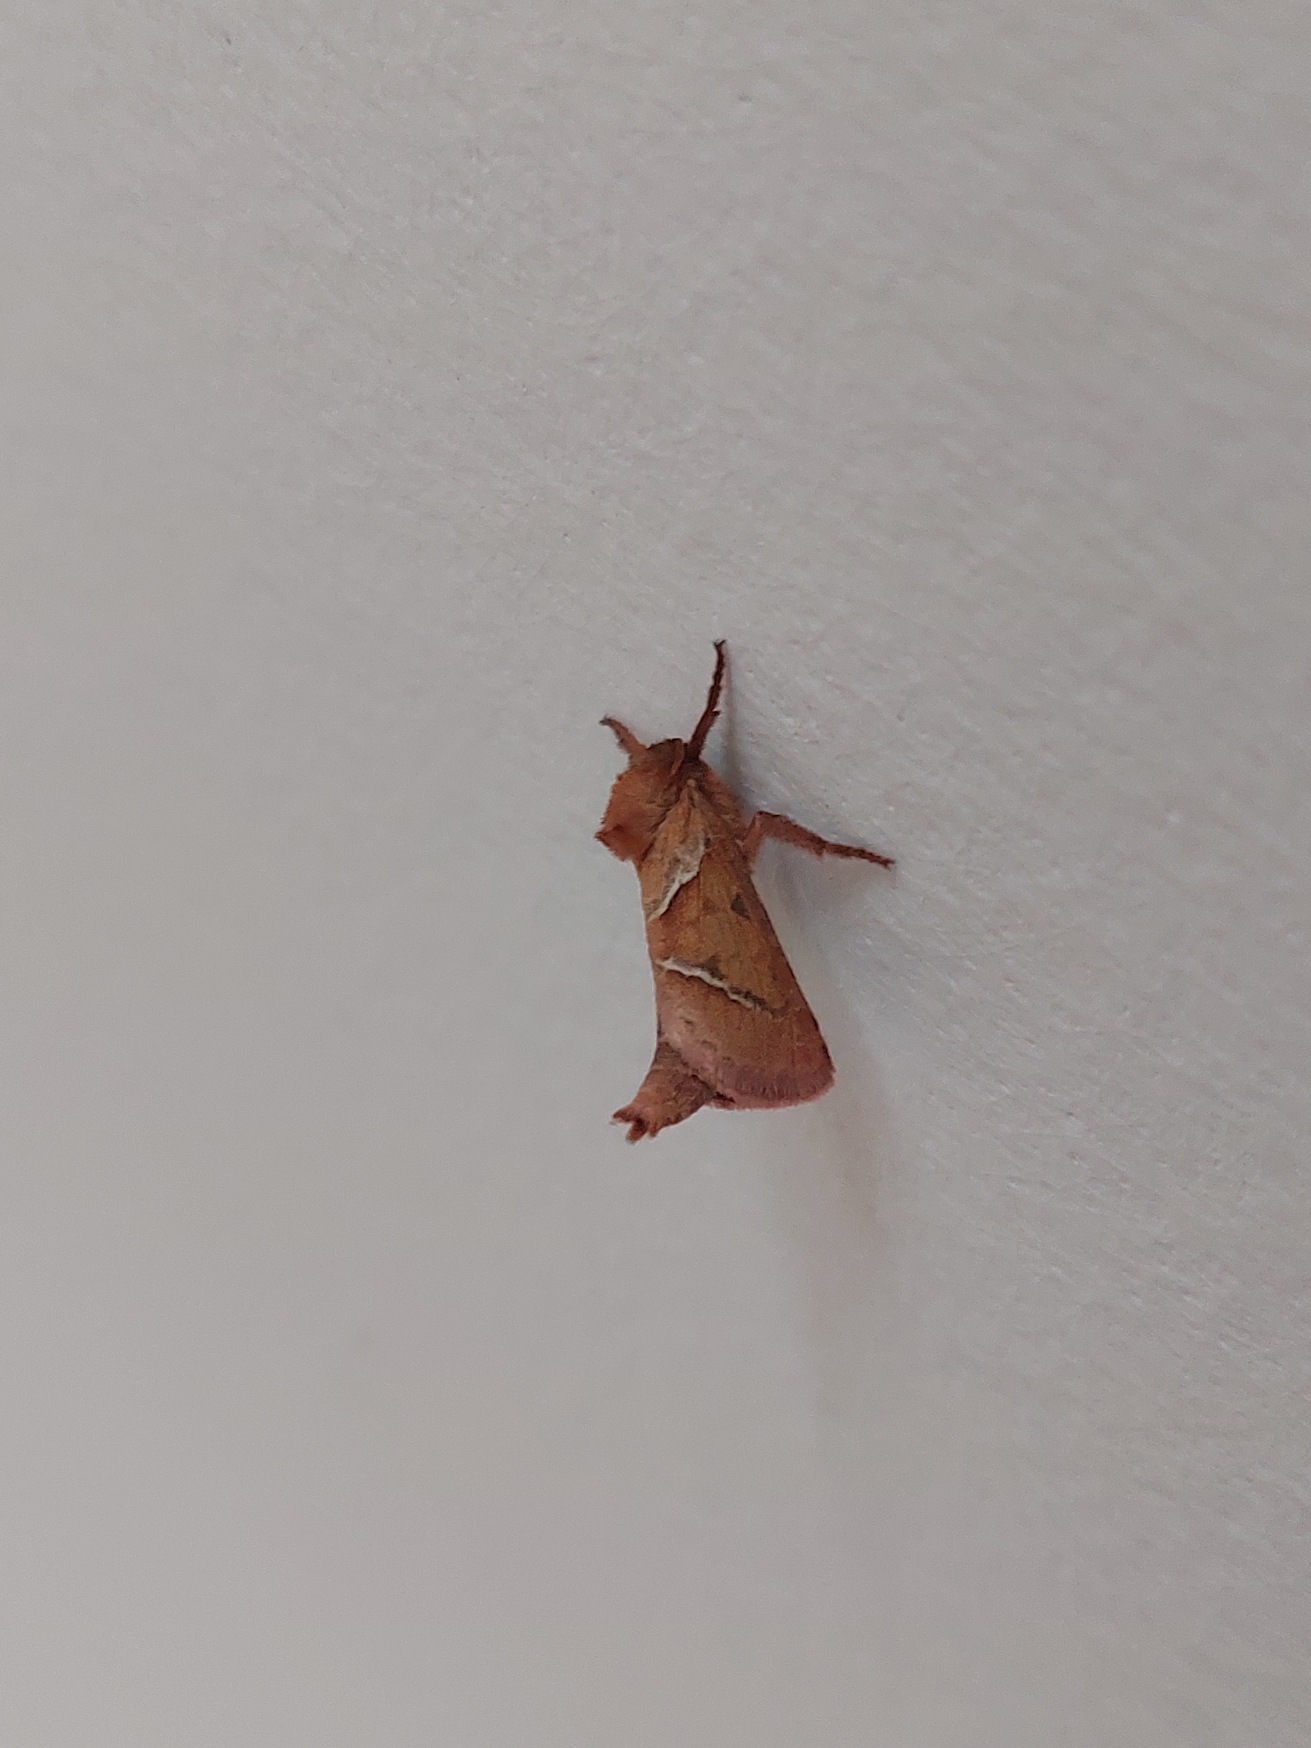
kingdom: Animalia
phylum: Arthropoda
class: Insecta
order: Lepidoptera
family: Hepialidae
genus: Triodia
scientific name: Triodia sylvina
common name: Skræpperodæder
